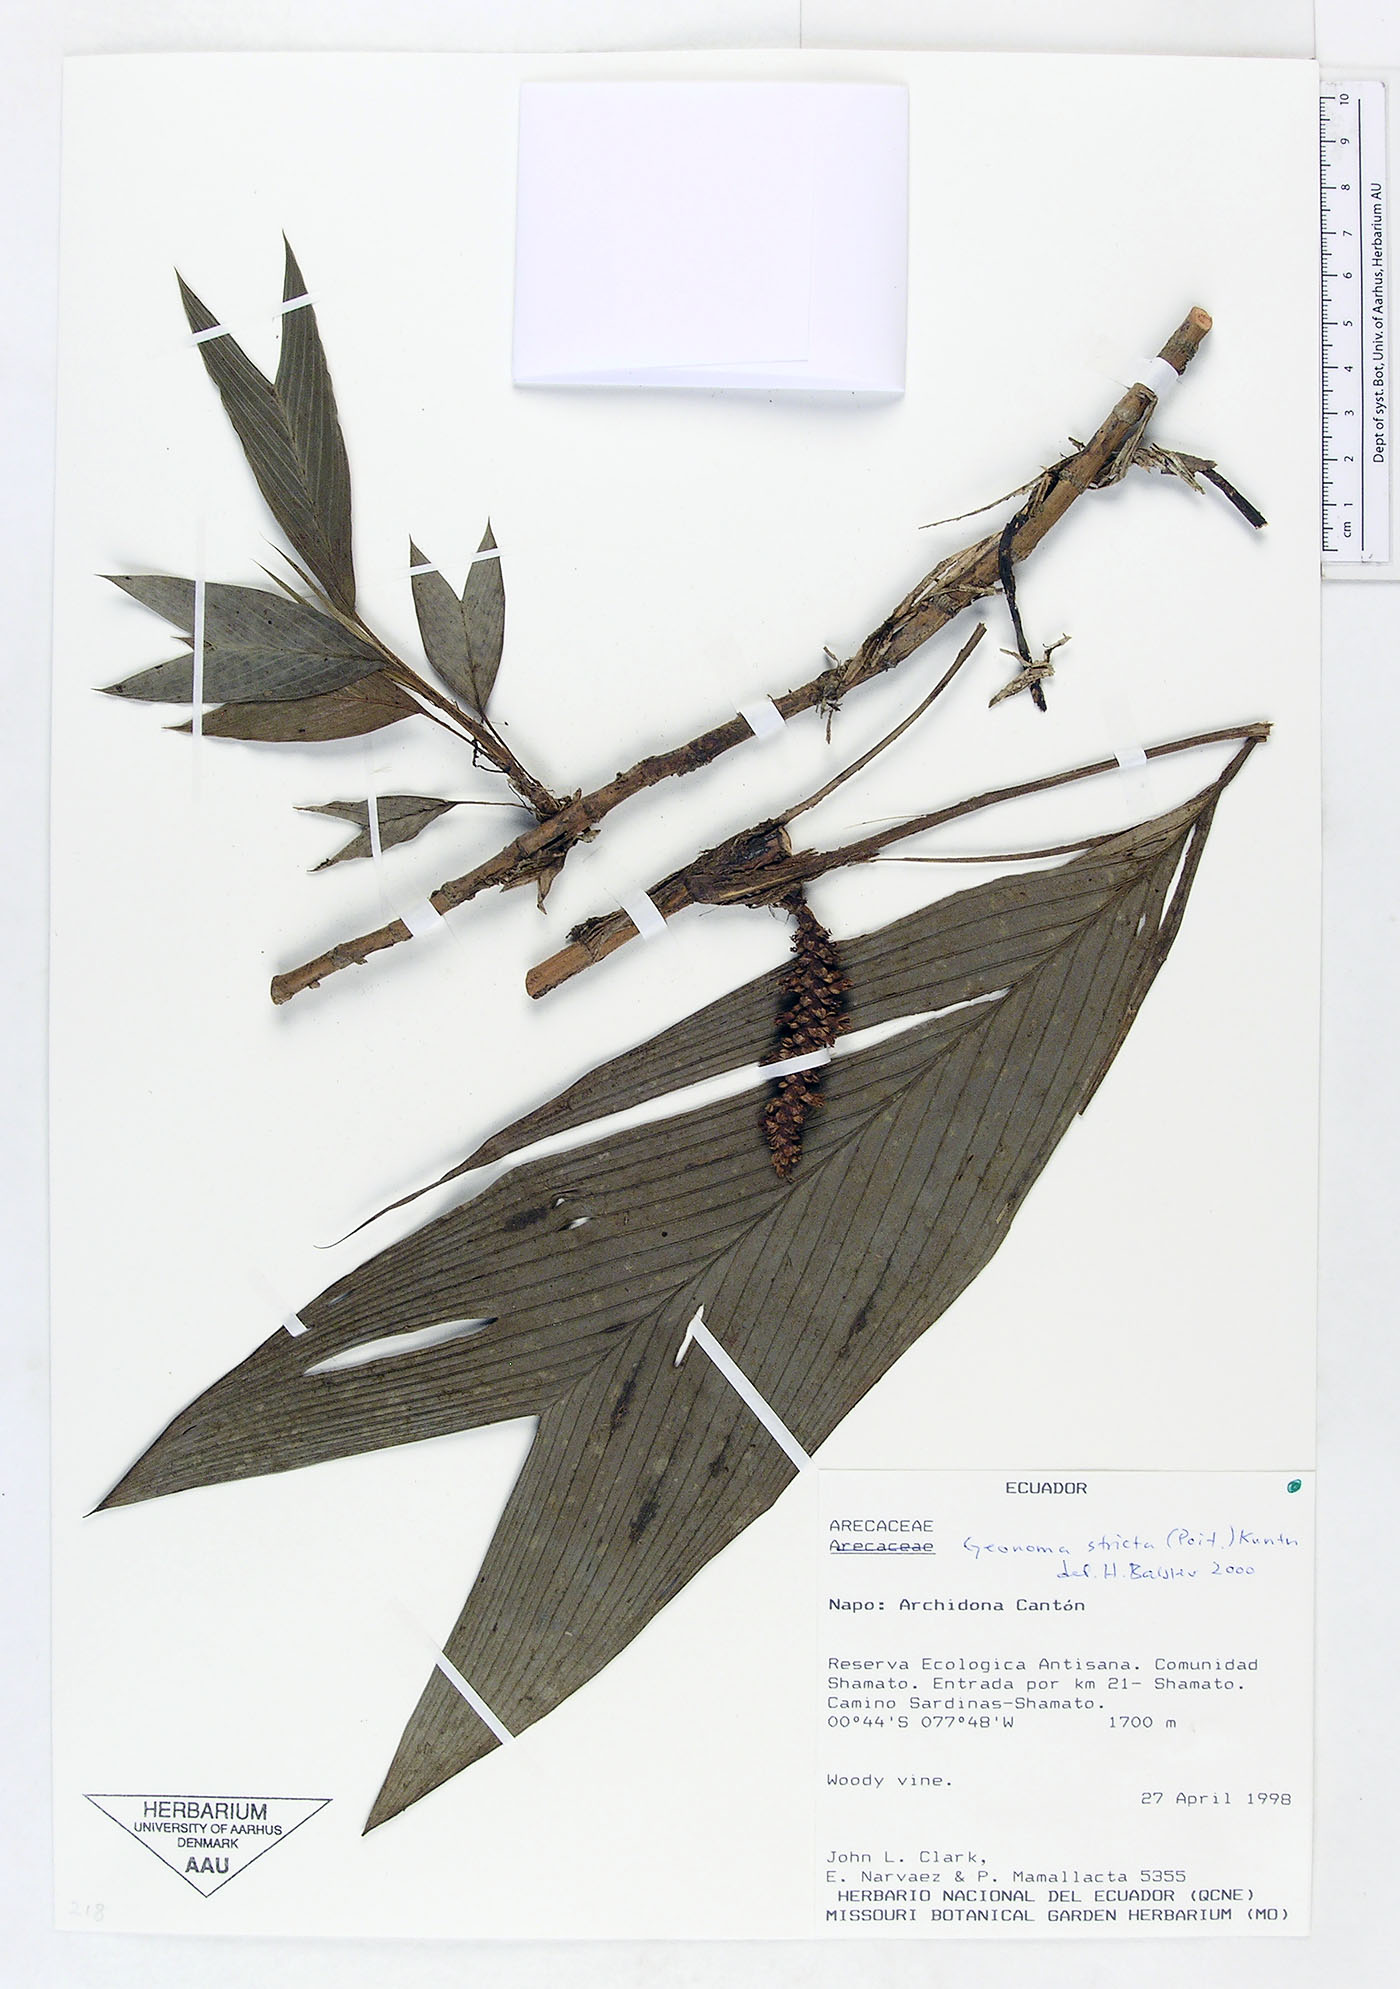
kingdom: Plantae
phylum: Tracheophyta
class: Liliopsida
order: Arecales
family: Arecaceae
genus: Geonoma
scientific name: Geonoma stricta
